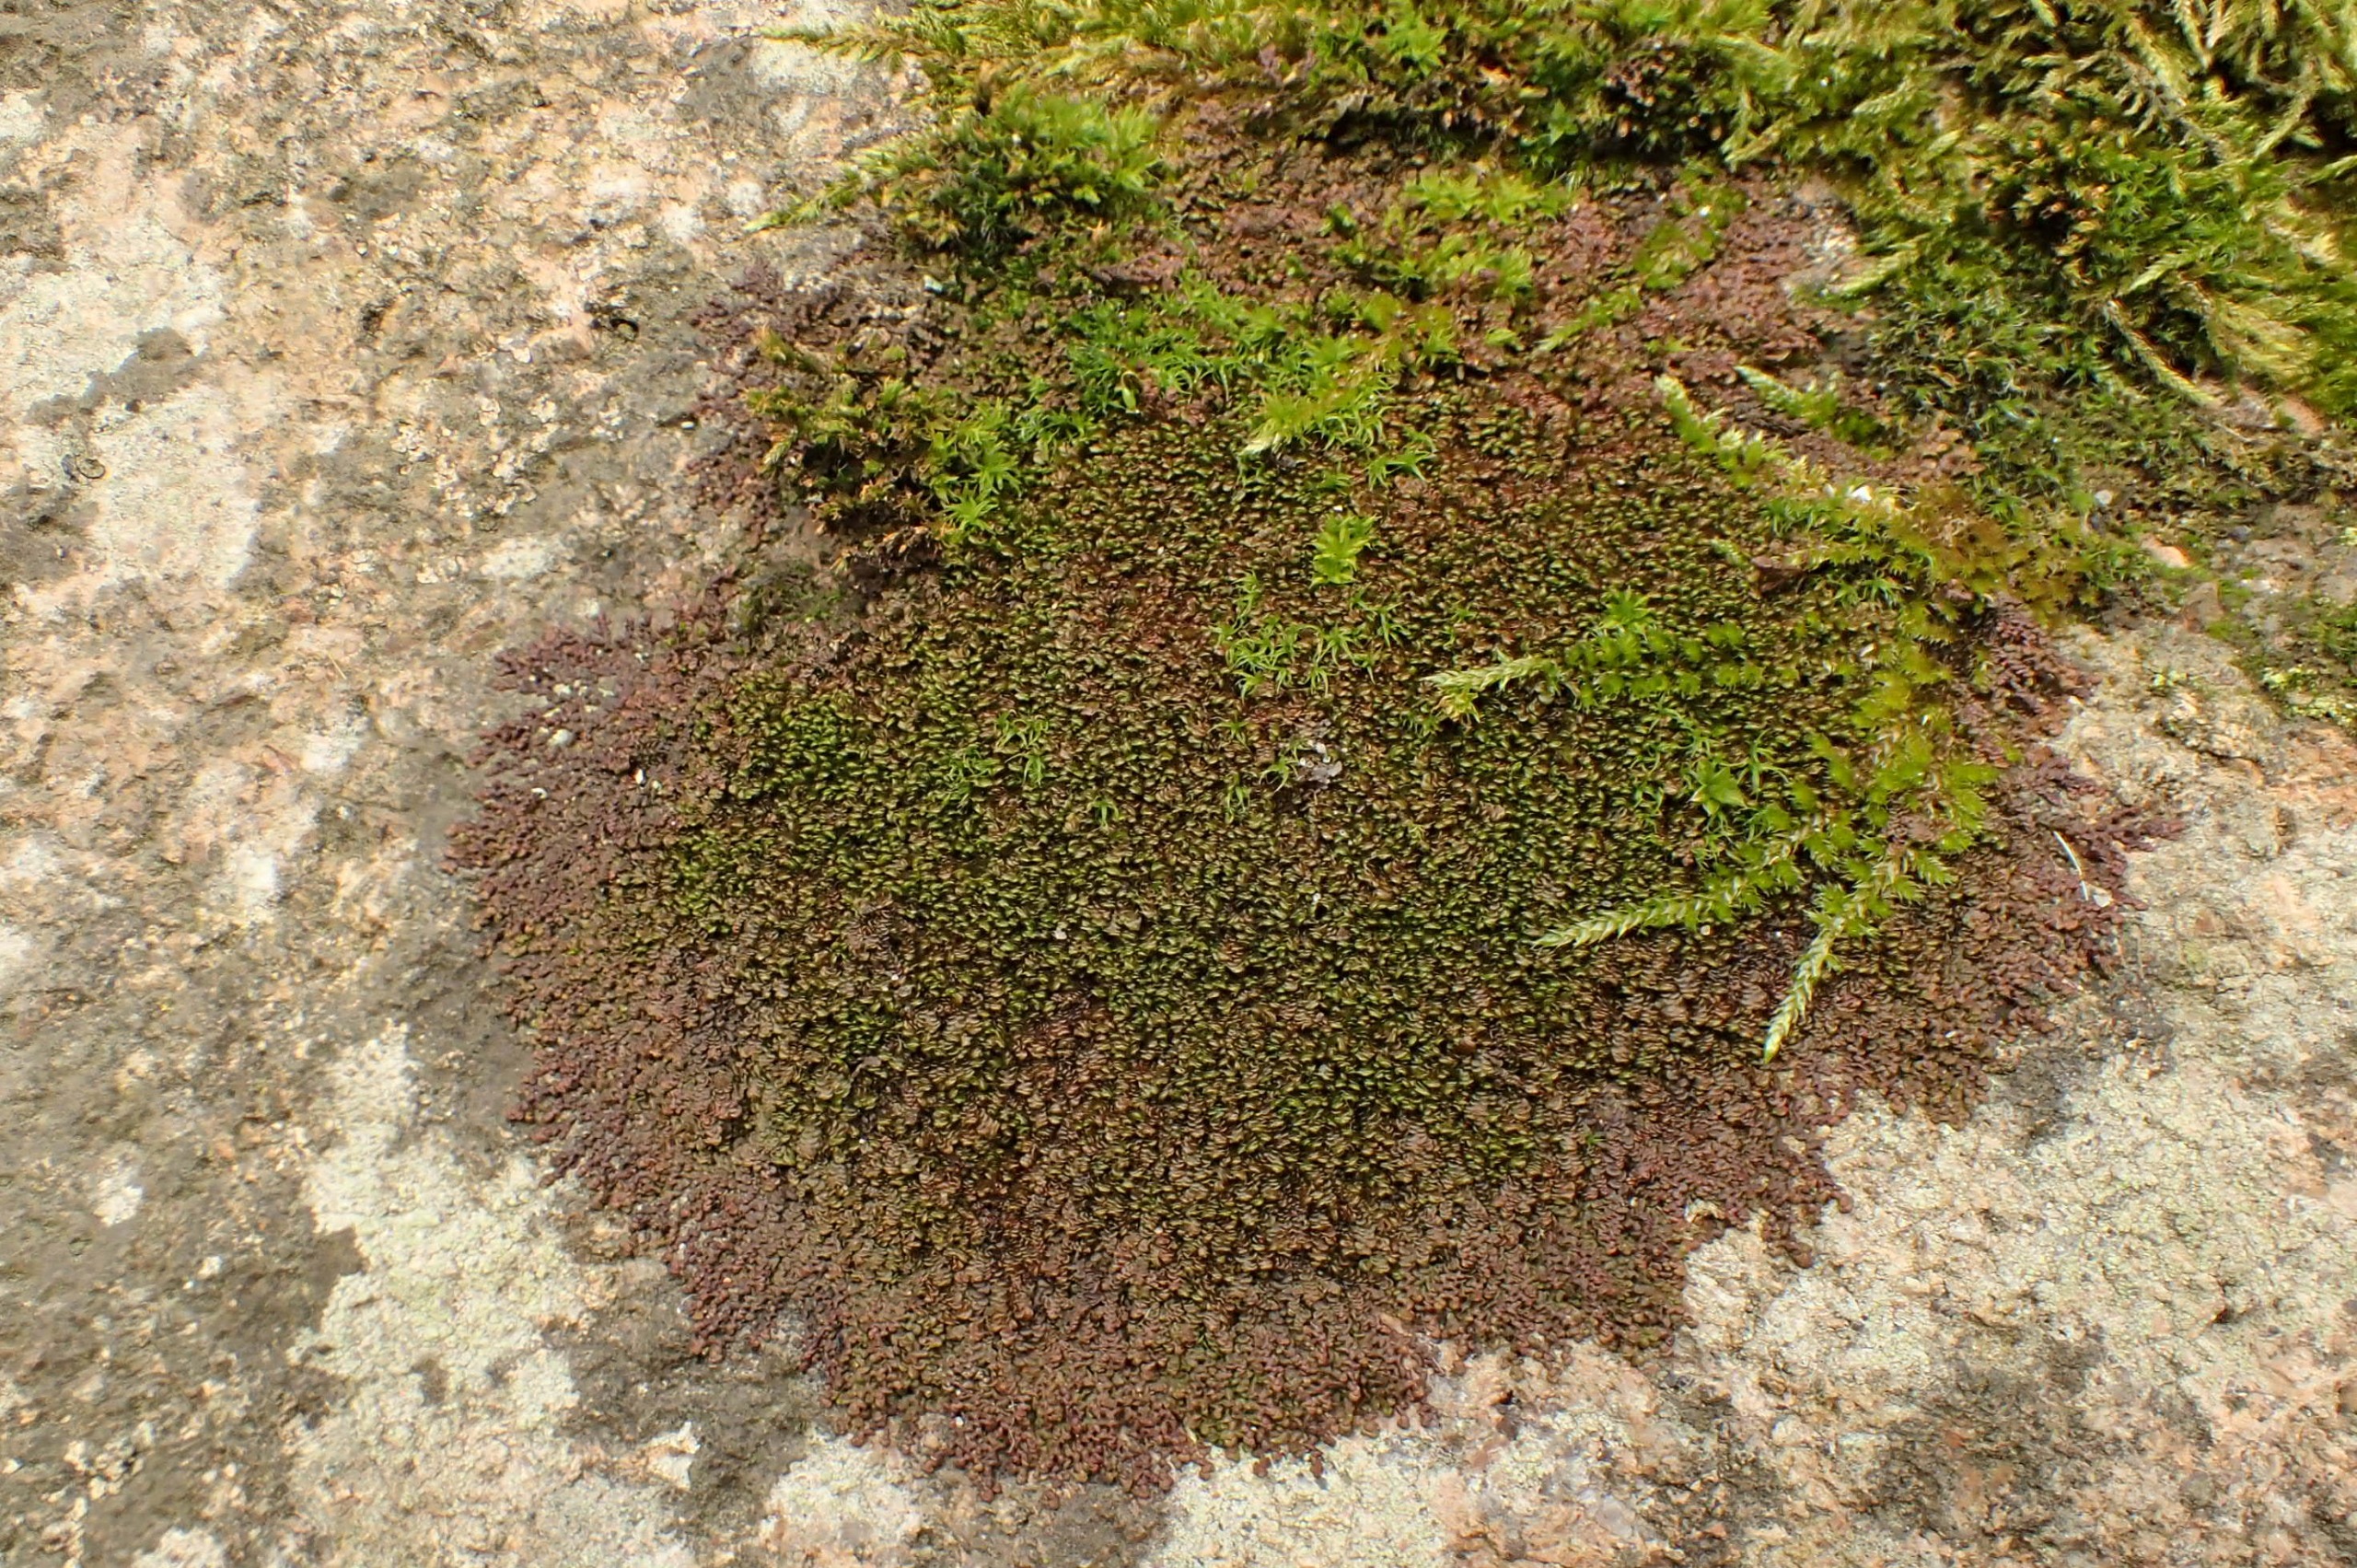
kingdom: Plantae
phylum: Marchantiophyta
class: Jungermanniopsida
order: Porellales
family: Frullaniaceae
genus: Frullania
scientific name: Frullania dilatata
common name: Mat bronzemos
